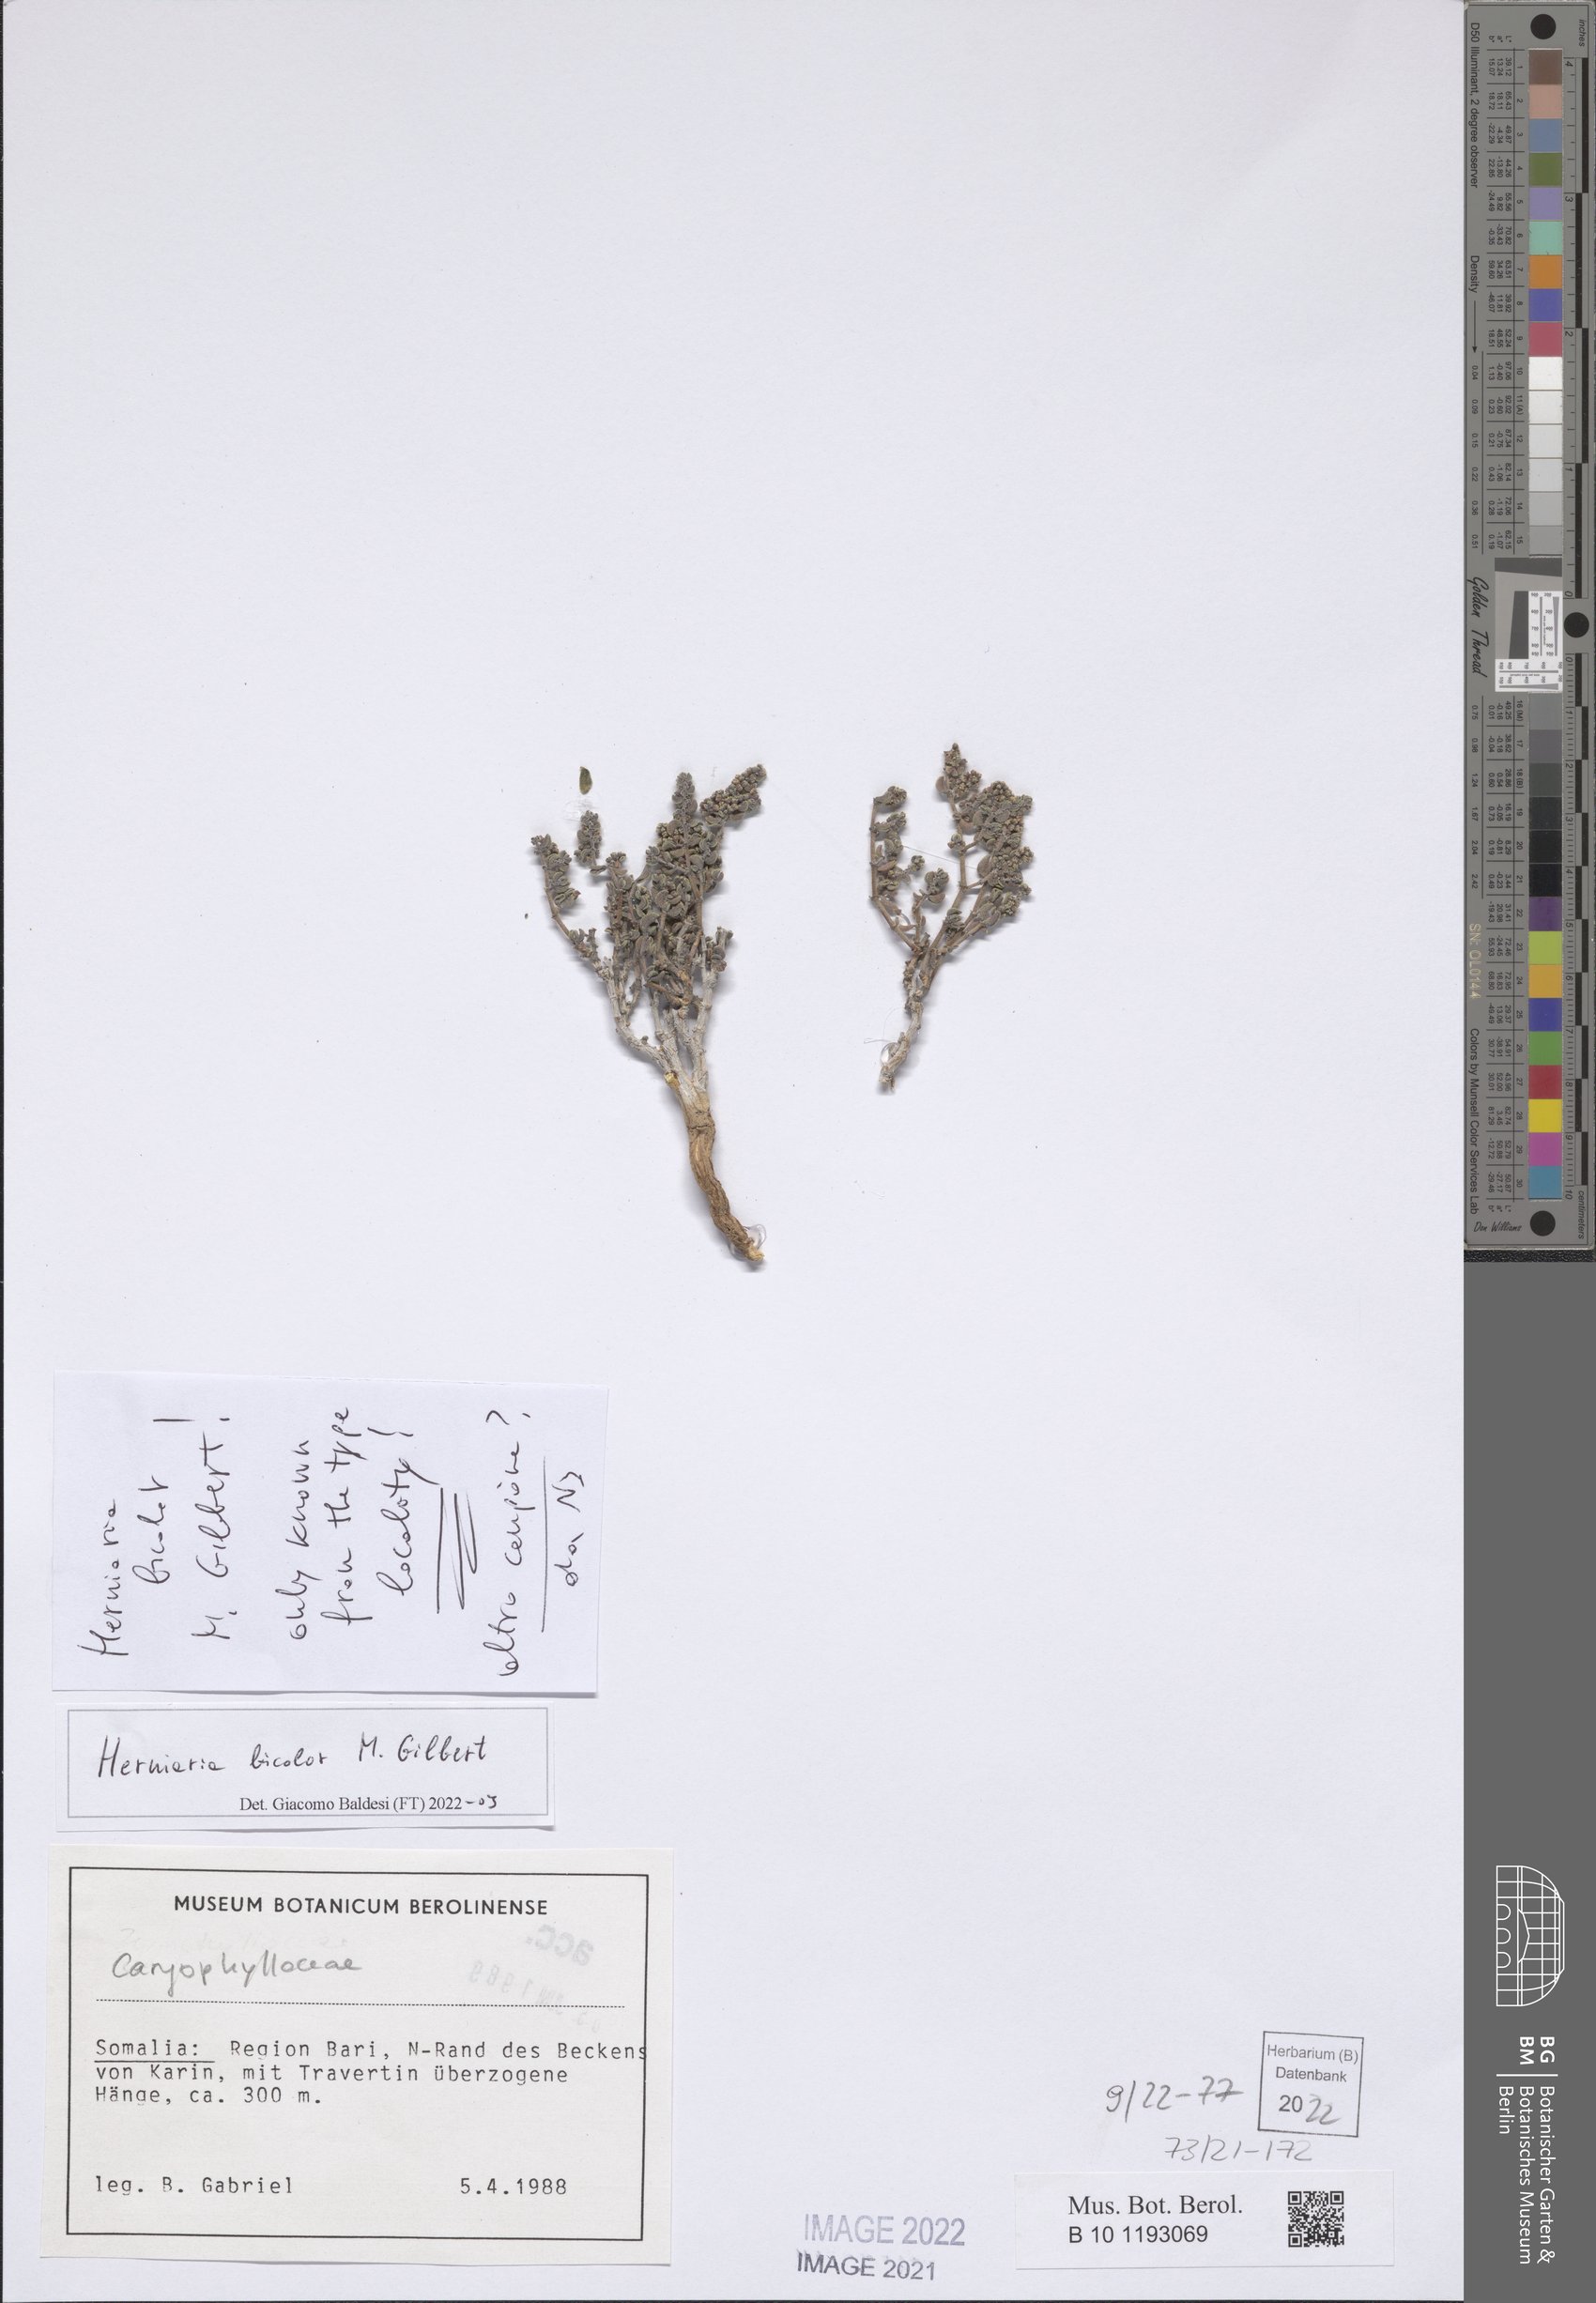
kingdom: Plantae
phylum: Tracheophyta
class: Magnoliopsida
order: Caryophyllales
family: Caryophyllaceae
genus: Herniaria
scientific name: Herniaria bicolor
